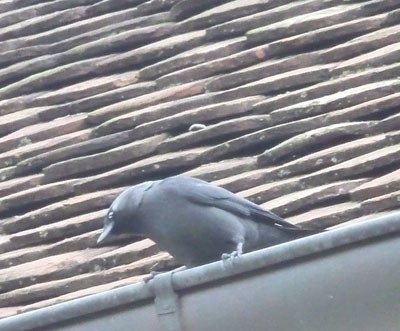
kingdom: Animalia
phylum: Chordata
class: Aves
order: Passeriformes
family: Corvidae
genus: Coloeus
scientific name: Coloeus monedula
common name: Western jackdaw
